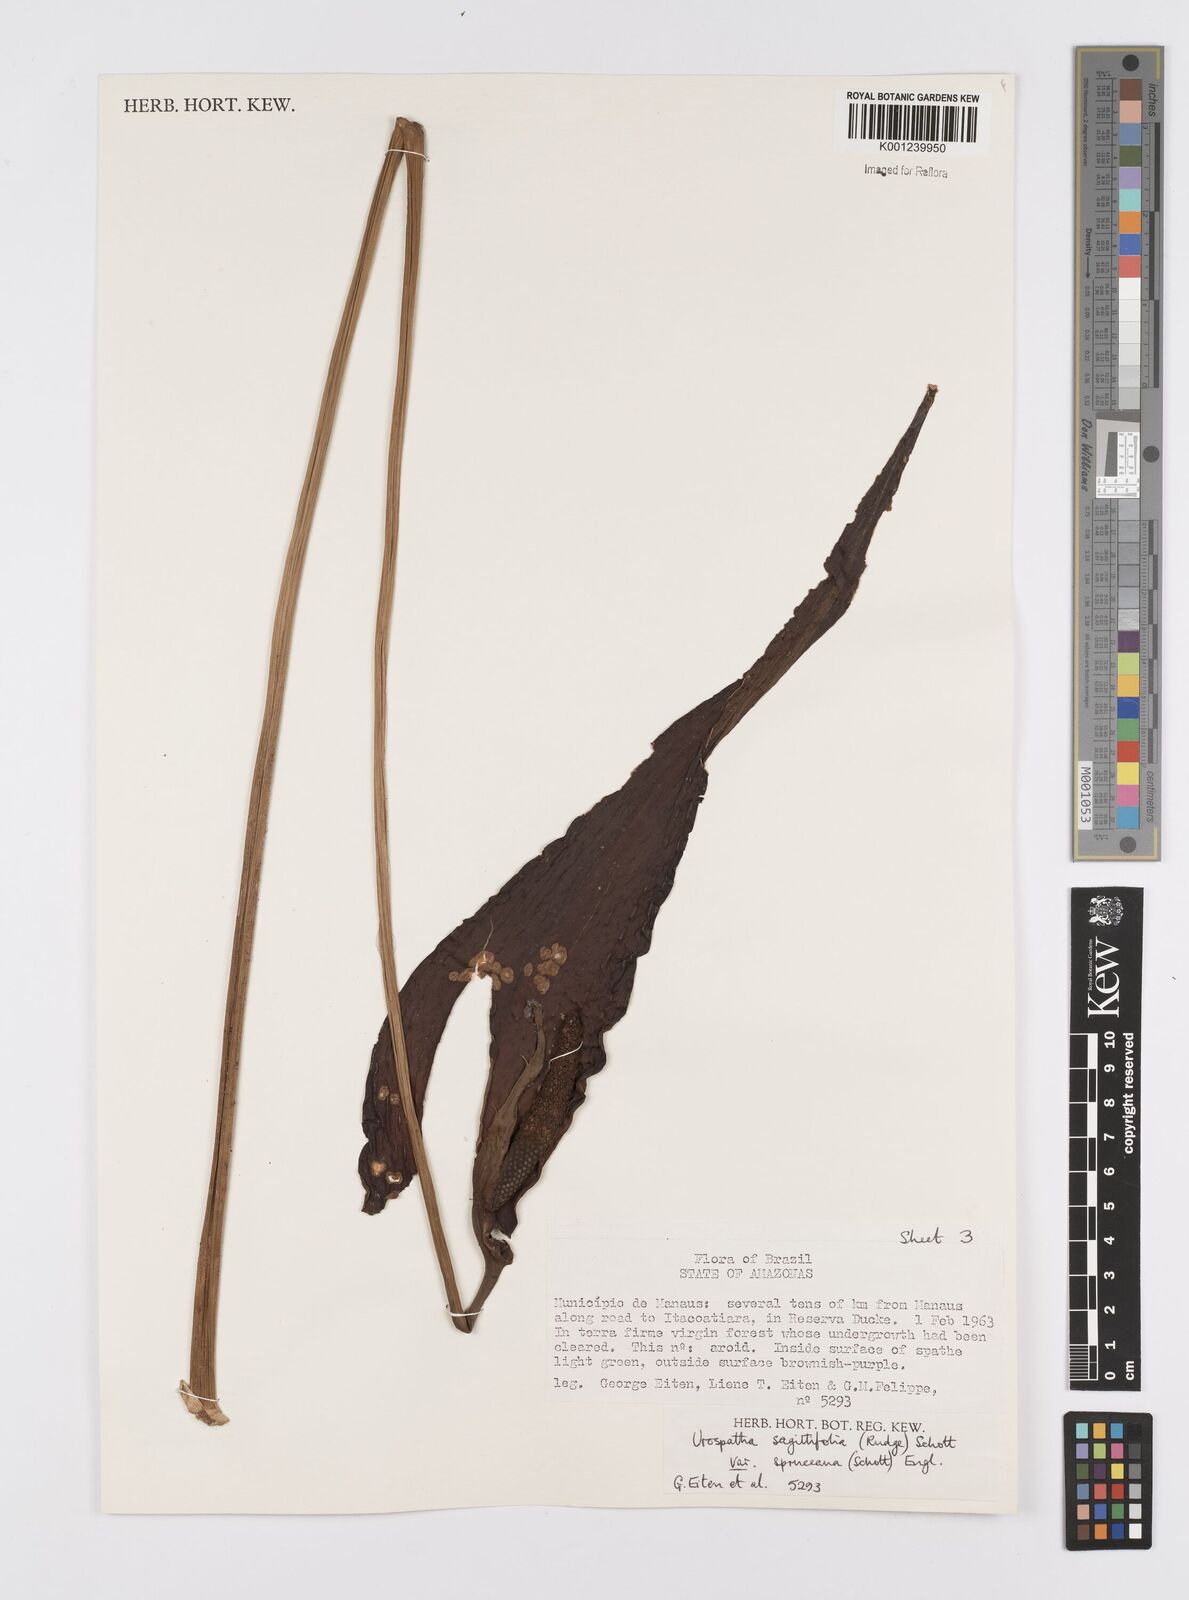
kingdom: Plantae
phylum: Tracheophyta
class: Liliopsida
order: Alismatales
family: Araceae
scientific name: Araceae
